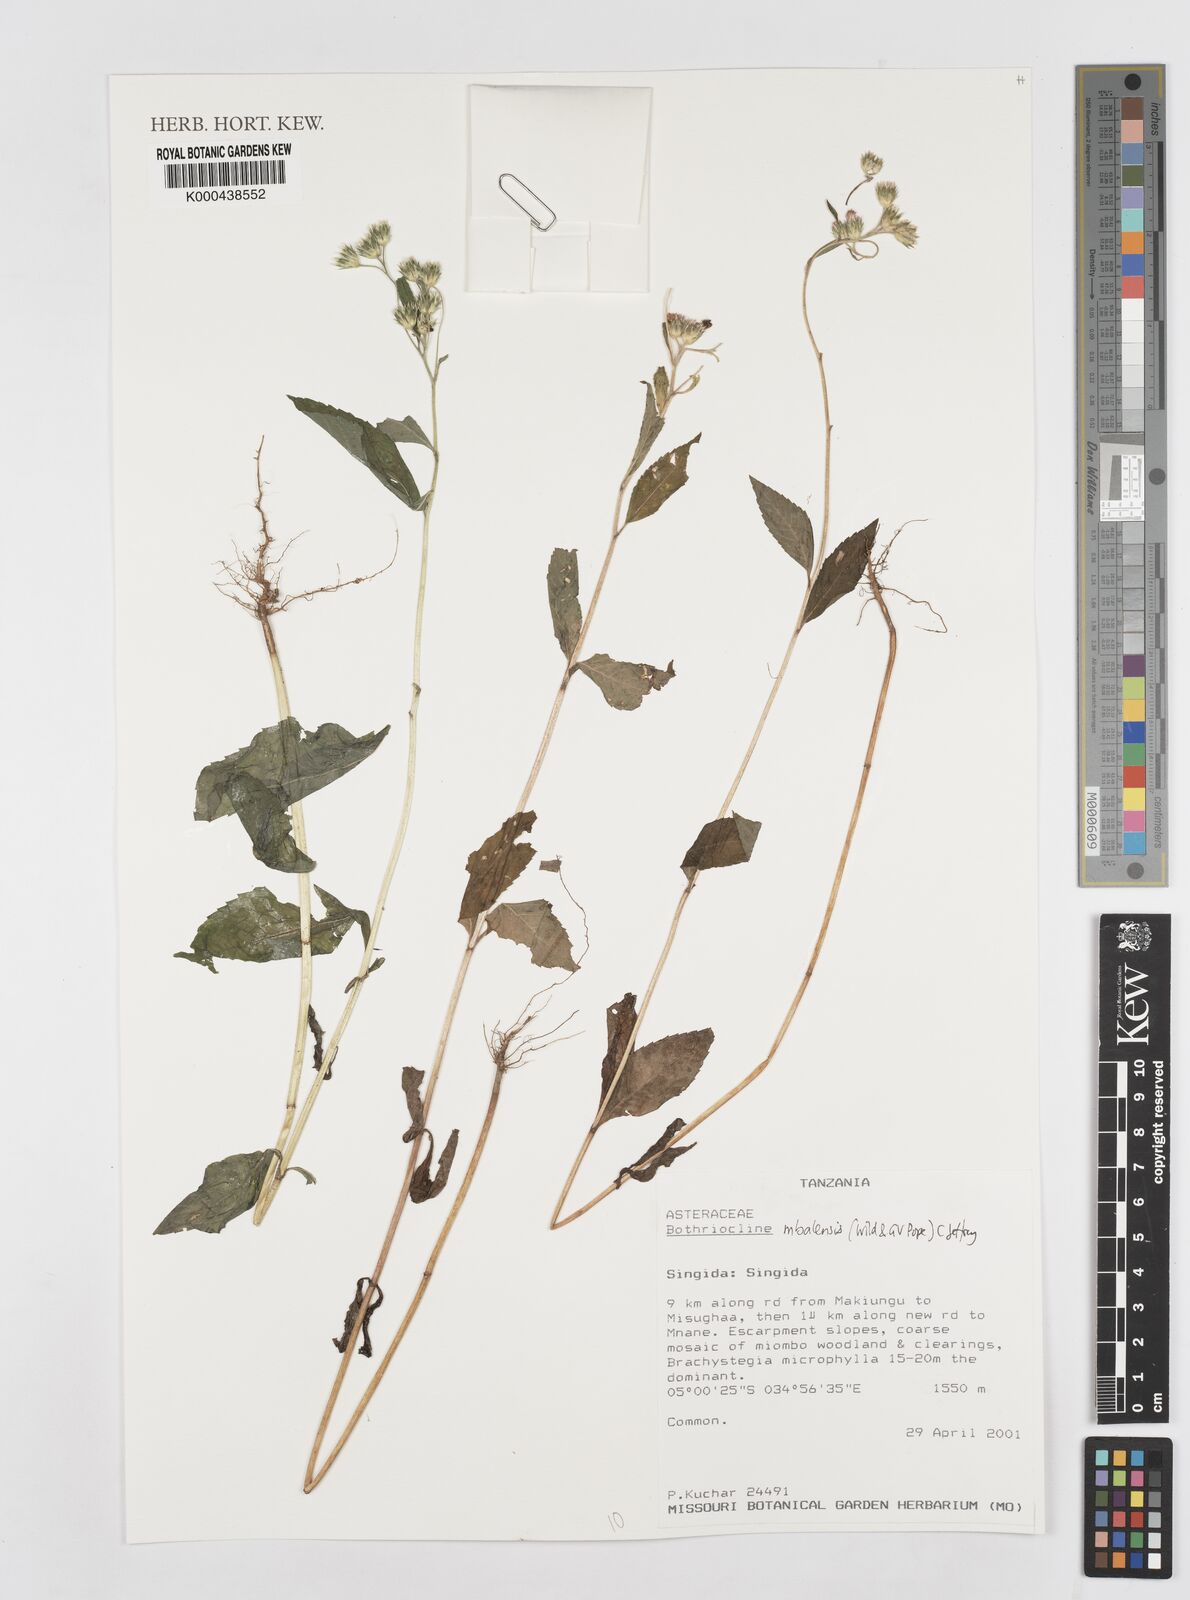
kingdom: Plantae
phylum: Tracheophyta
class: Magnoliopsida
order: Asterales
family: Asteraceae
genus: Bothriocline
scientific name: Bothriocline mbalensis
